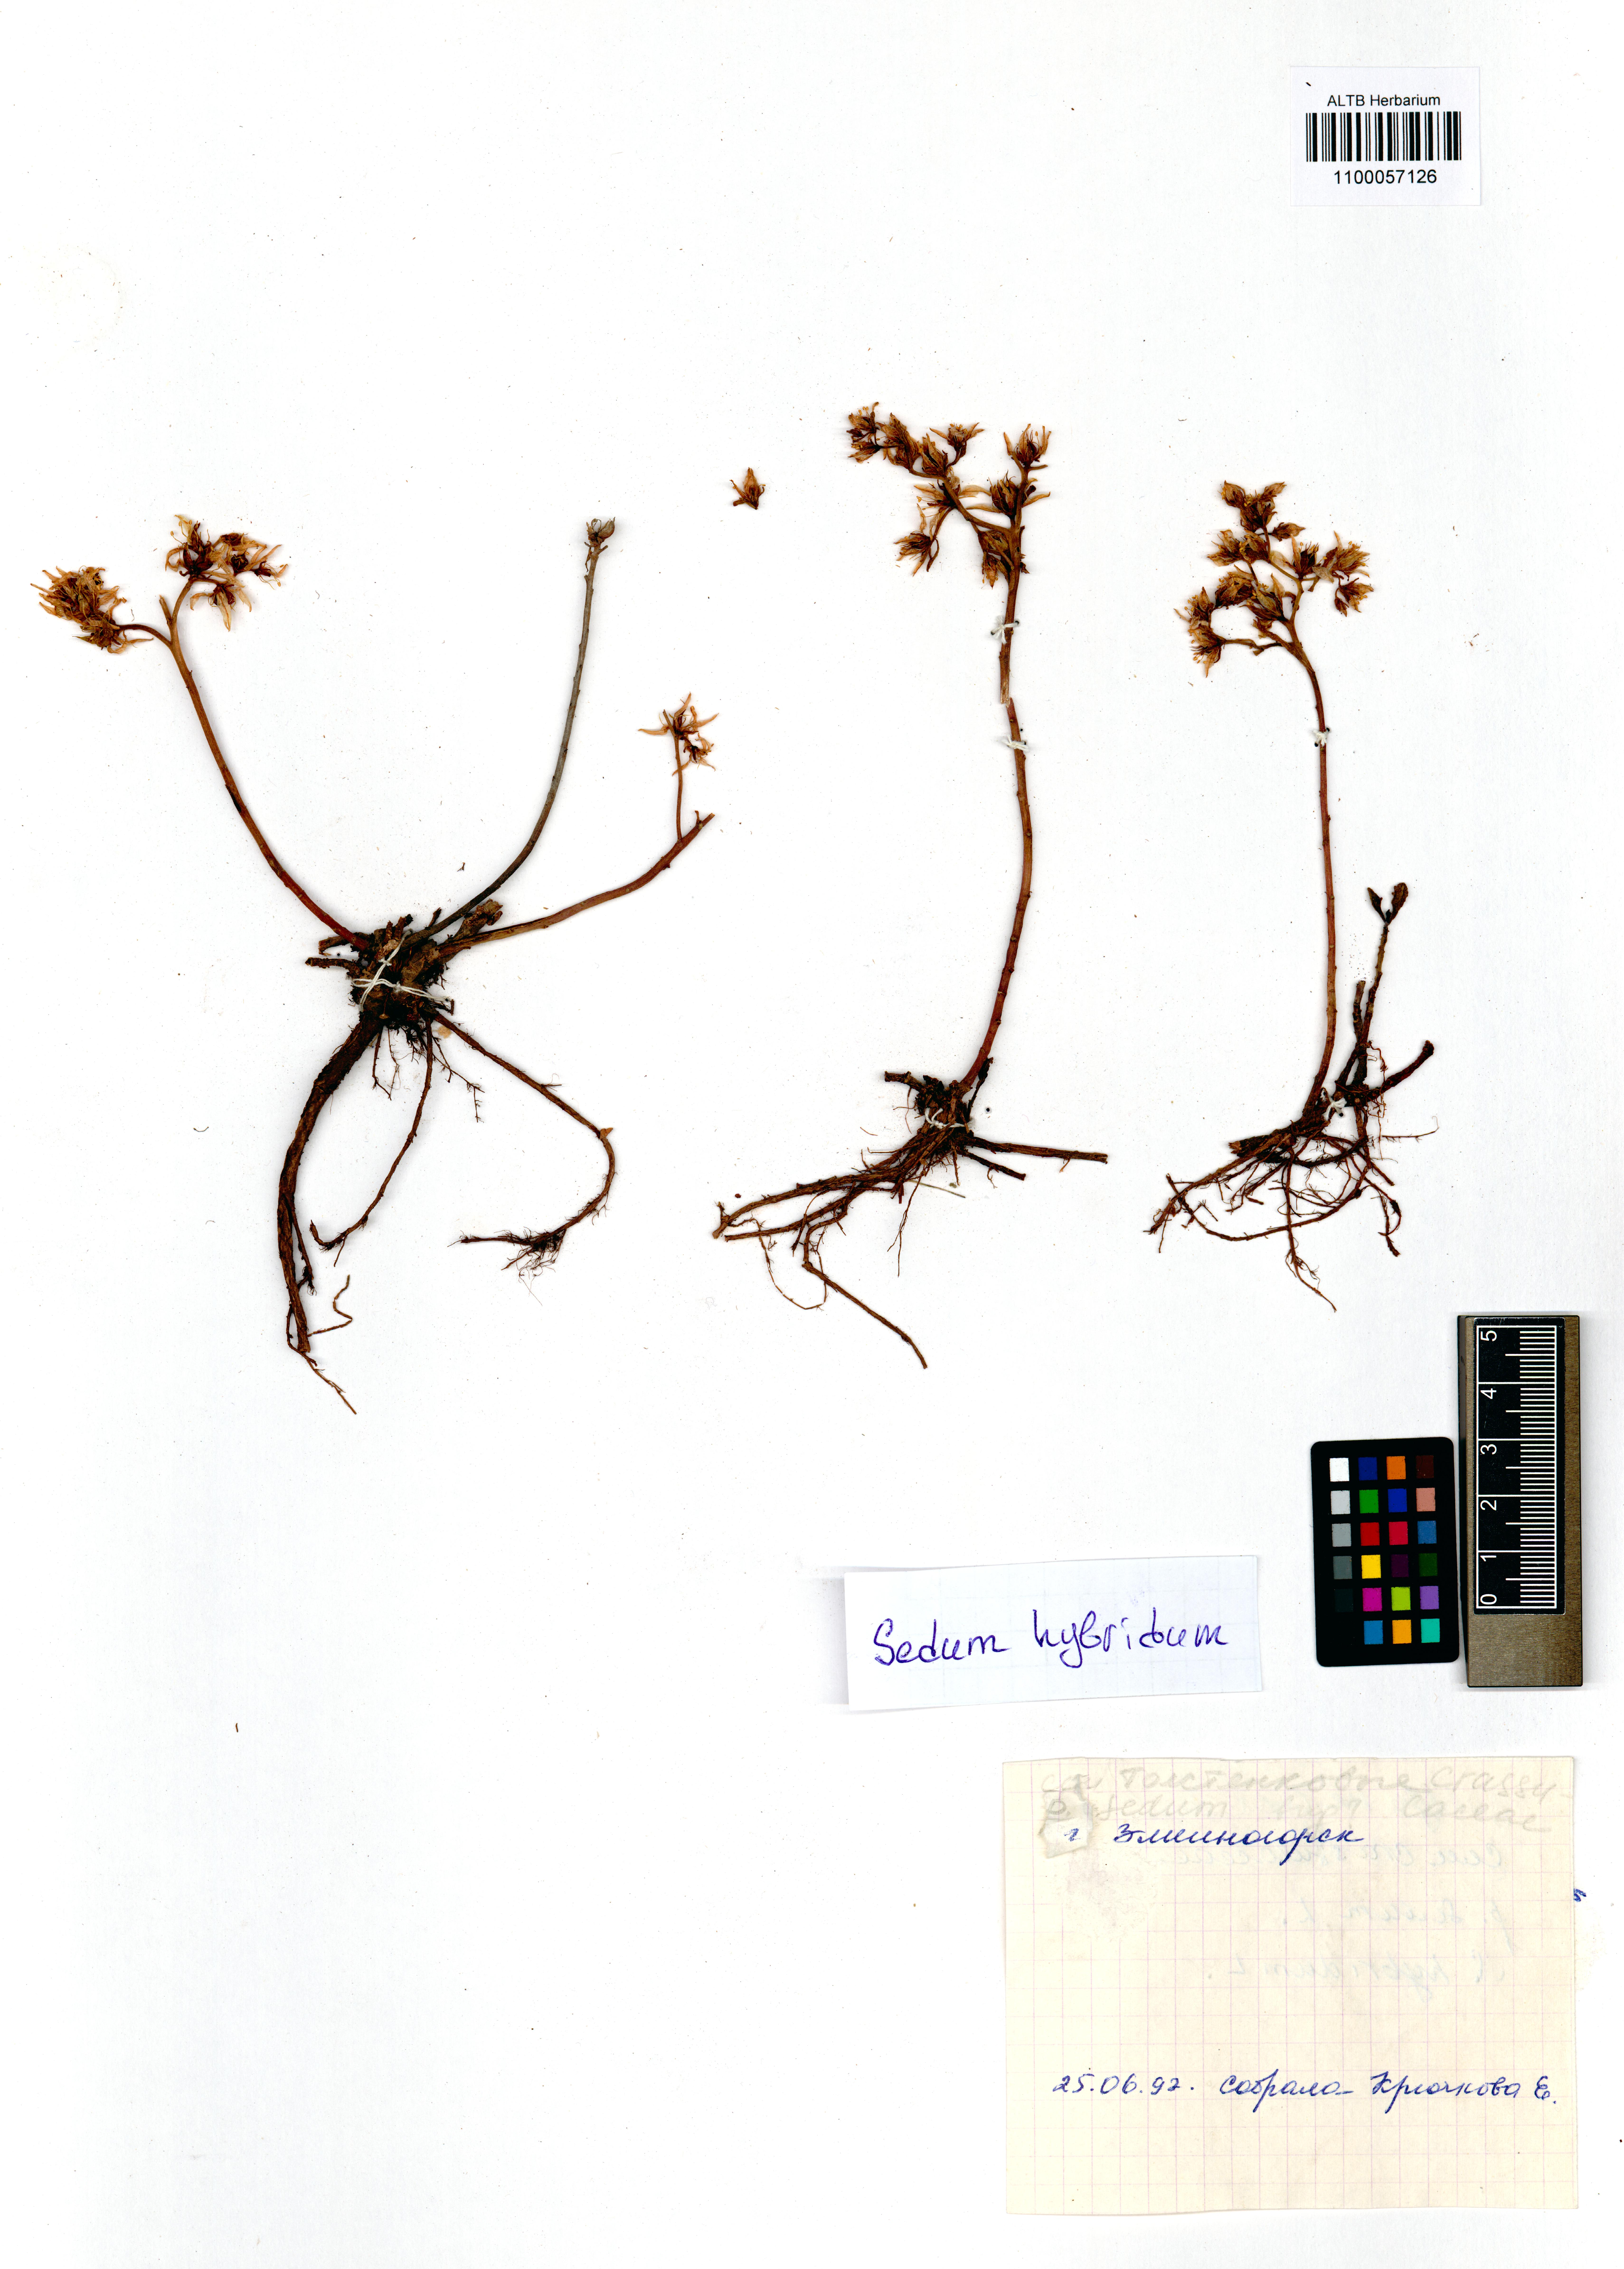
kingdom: Plantae
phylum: Tracheophyta
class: Magnoliopsida
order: Saxifragales
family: Crassulaceae
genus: Phedimus
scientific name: Phedimus hybridus
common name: Hybrid stonecrop
